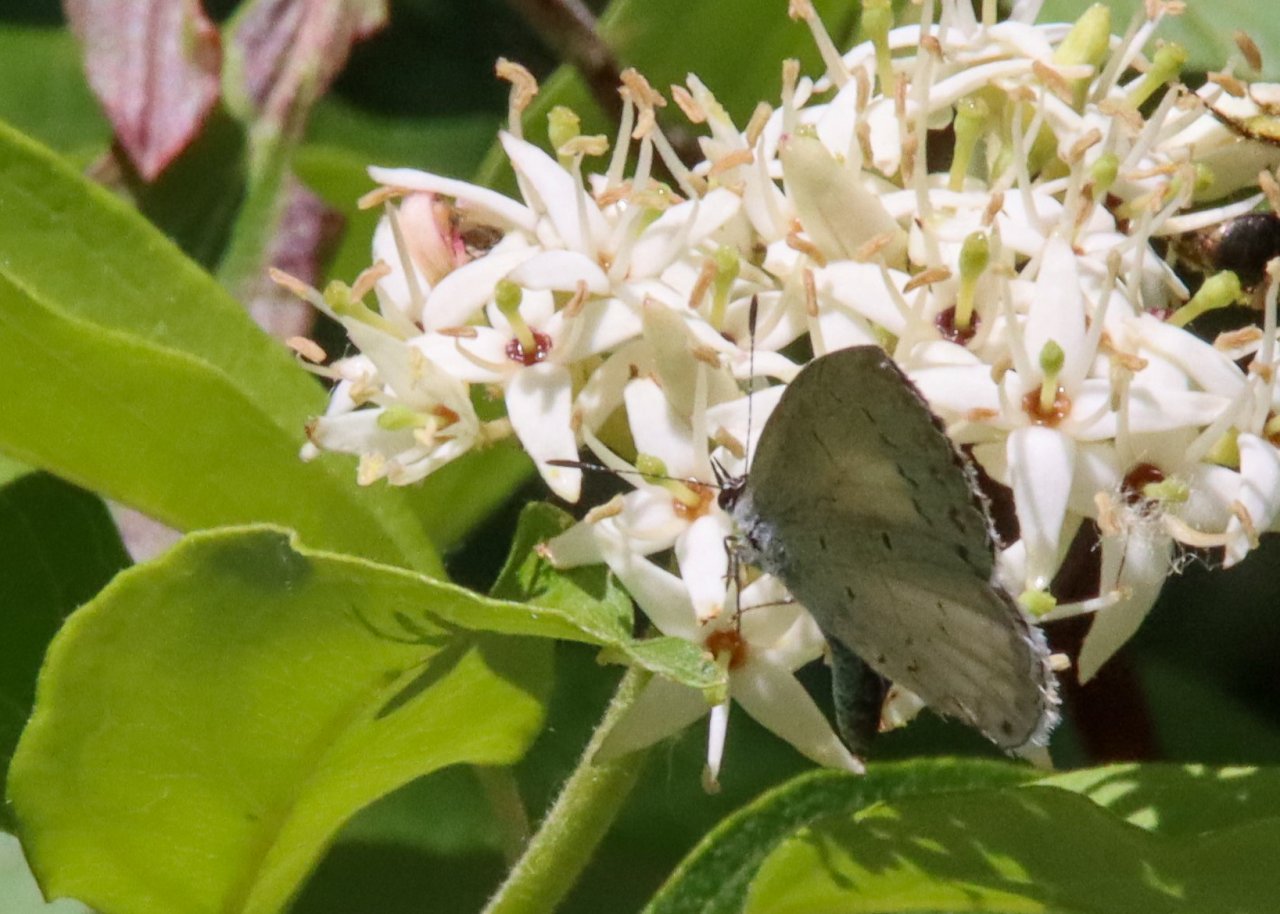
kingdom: Animalia
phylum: Arthropoda
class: Insecta
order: Lepidoptera
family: Lycaenidae
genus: Celastrina
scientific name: Celastrina
